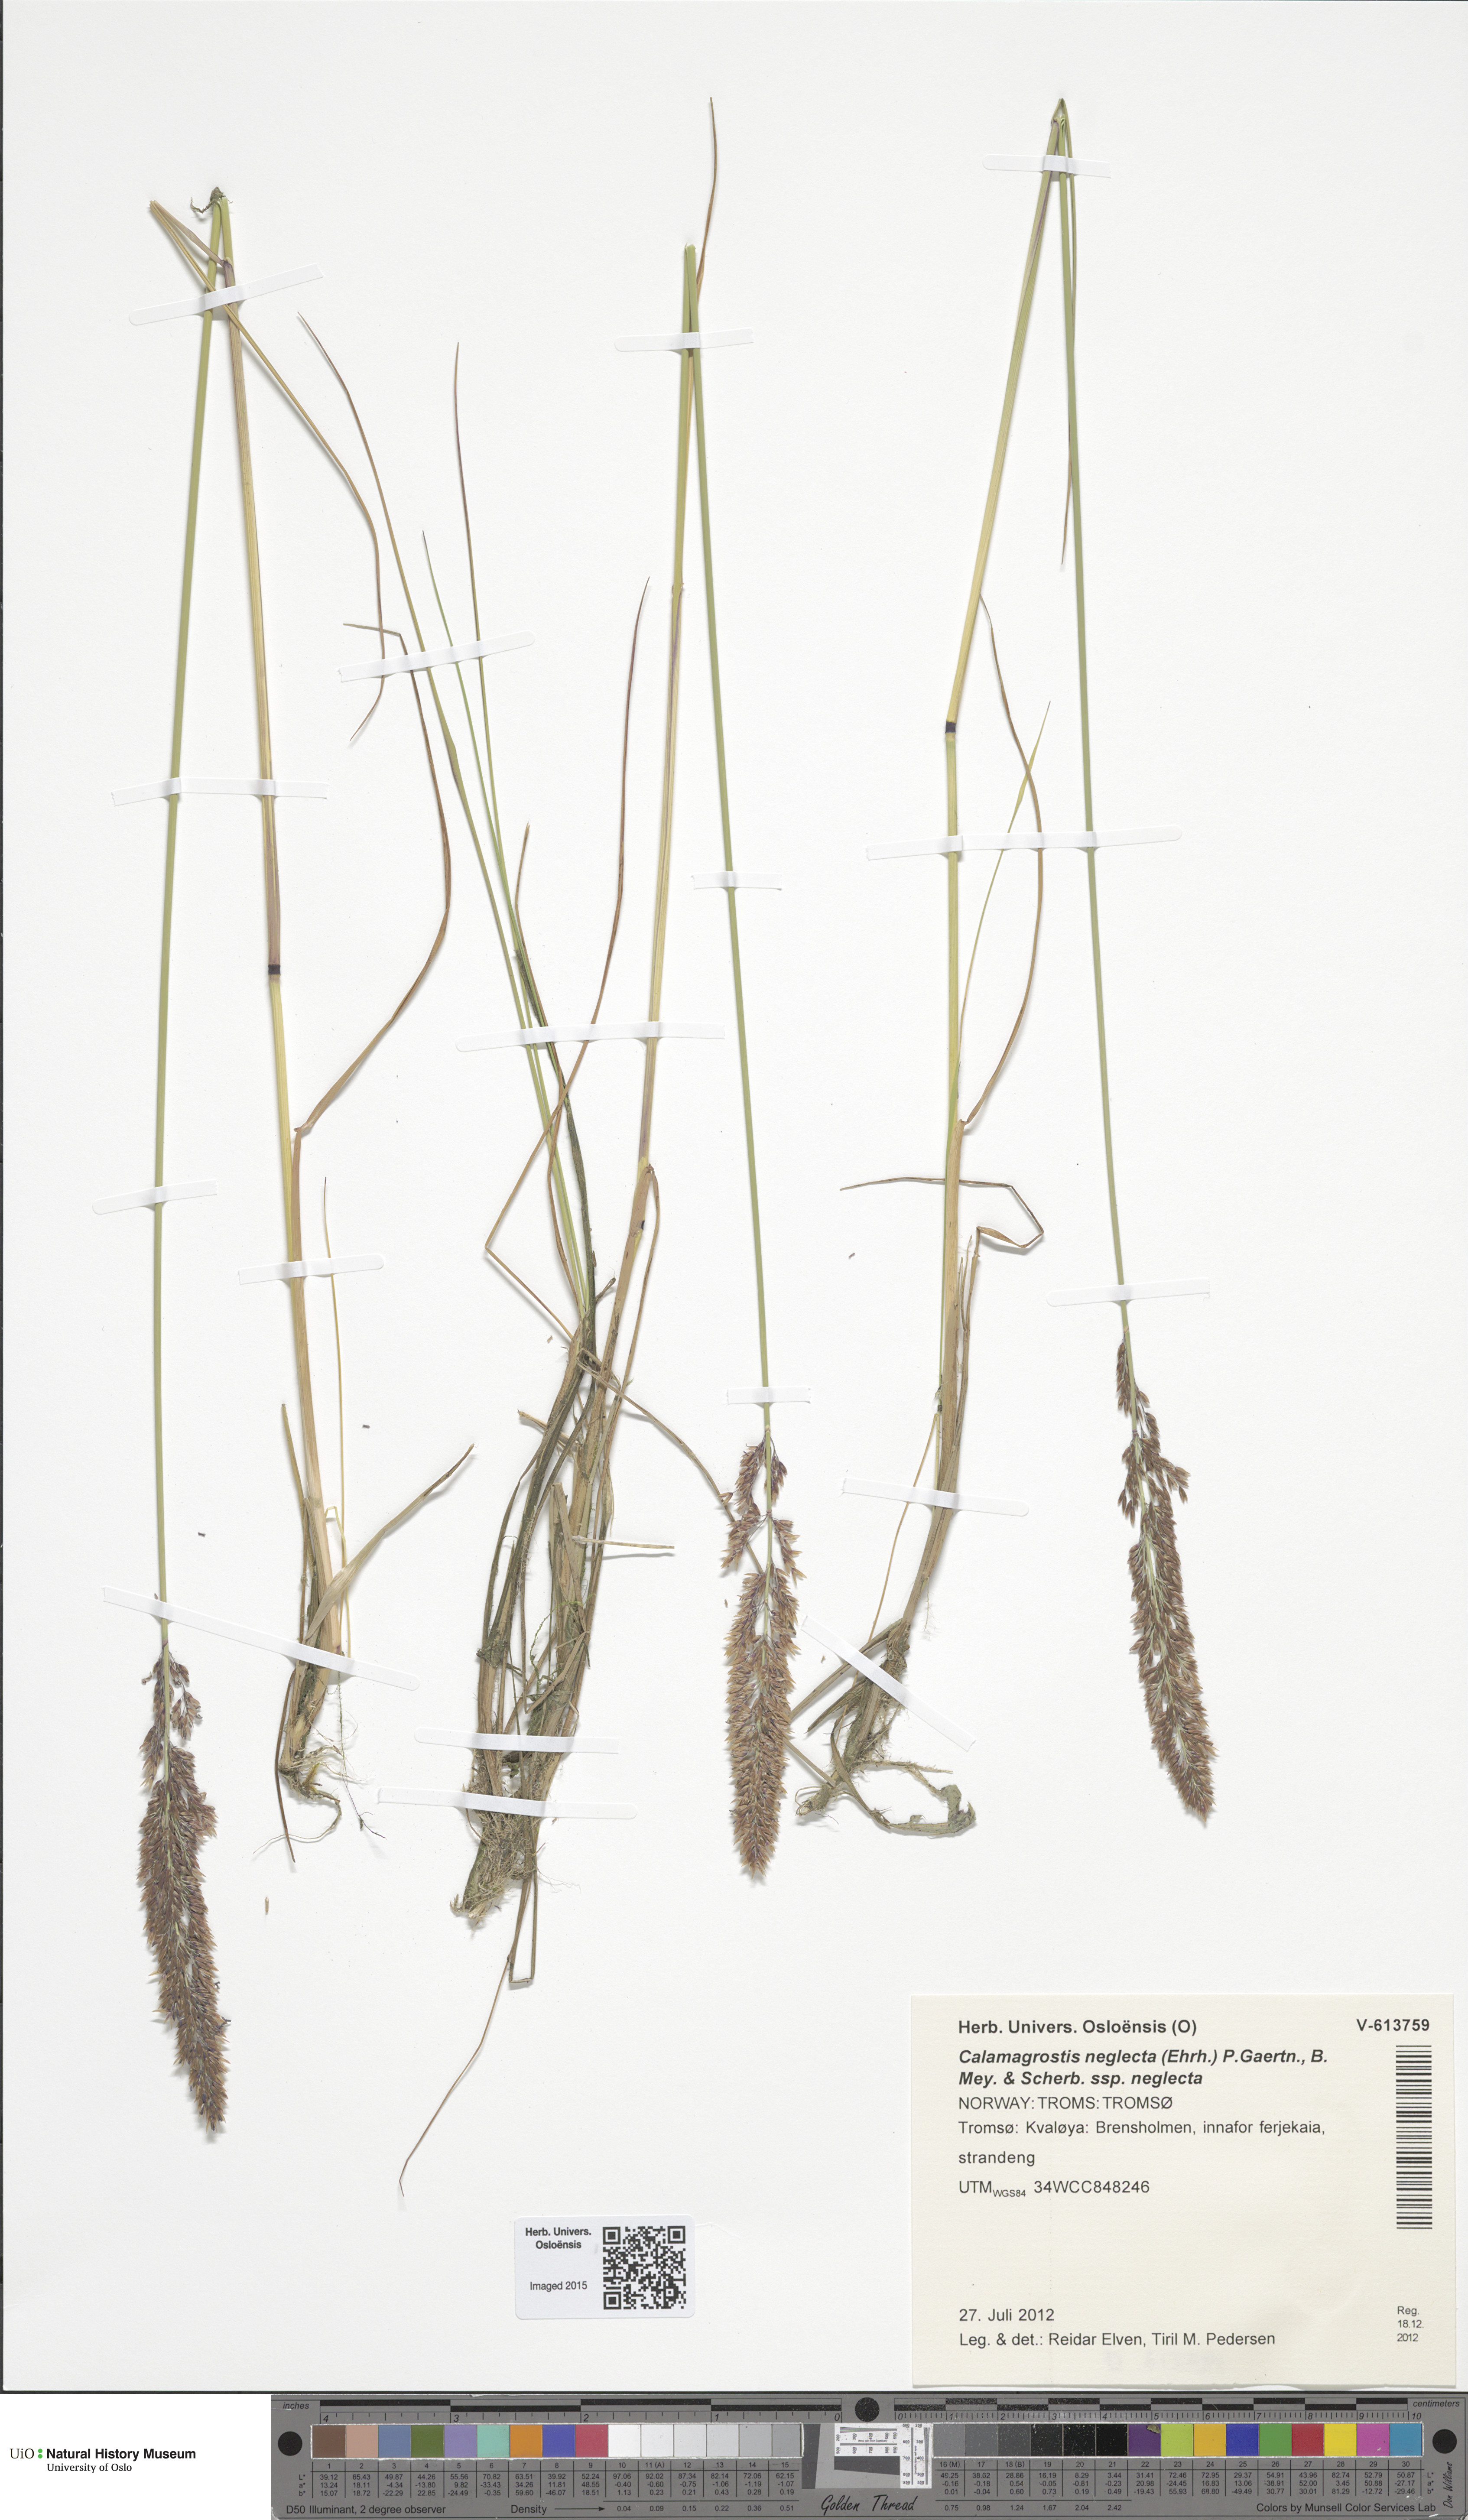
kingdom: Plantae
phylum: Tracheophyta
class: Liliopsida
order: Poales
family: Poaceae
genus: Achnatherum
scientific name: Achnatherum calamagrostis
